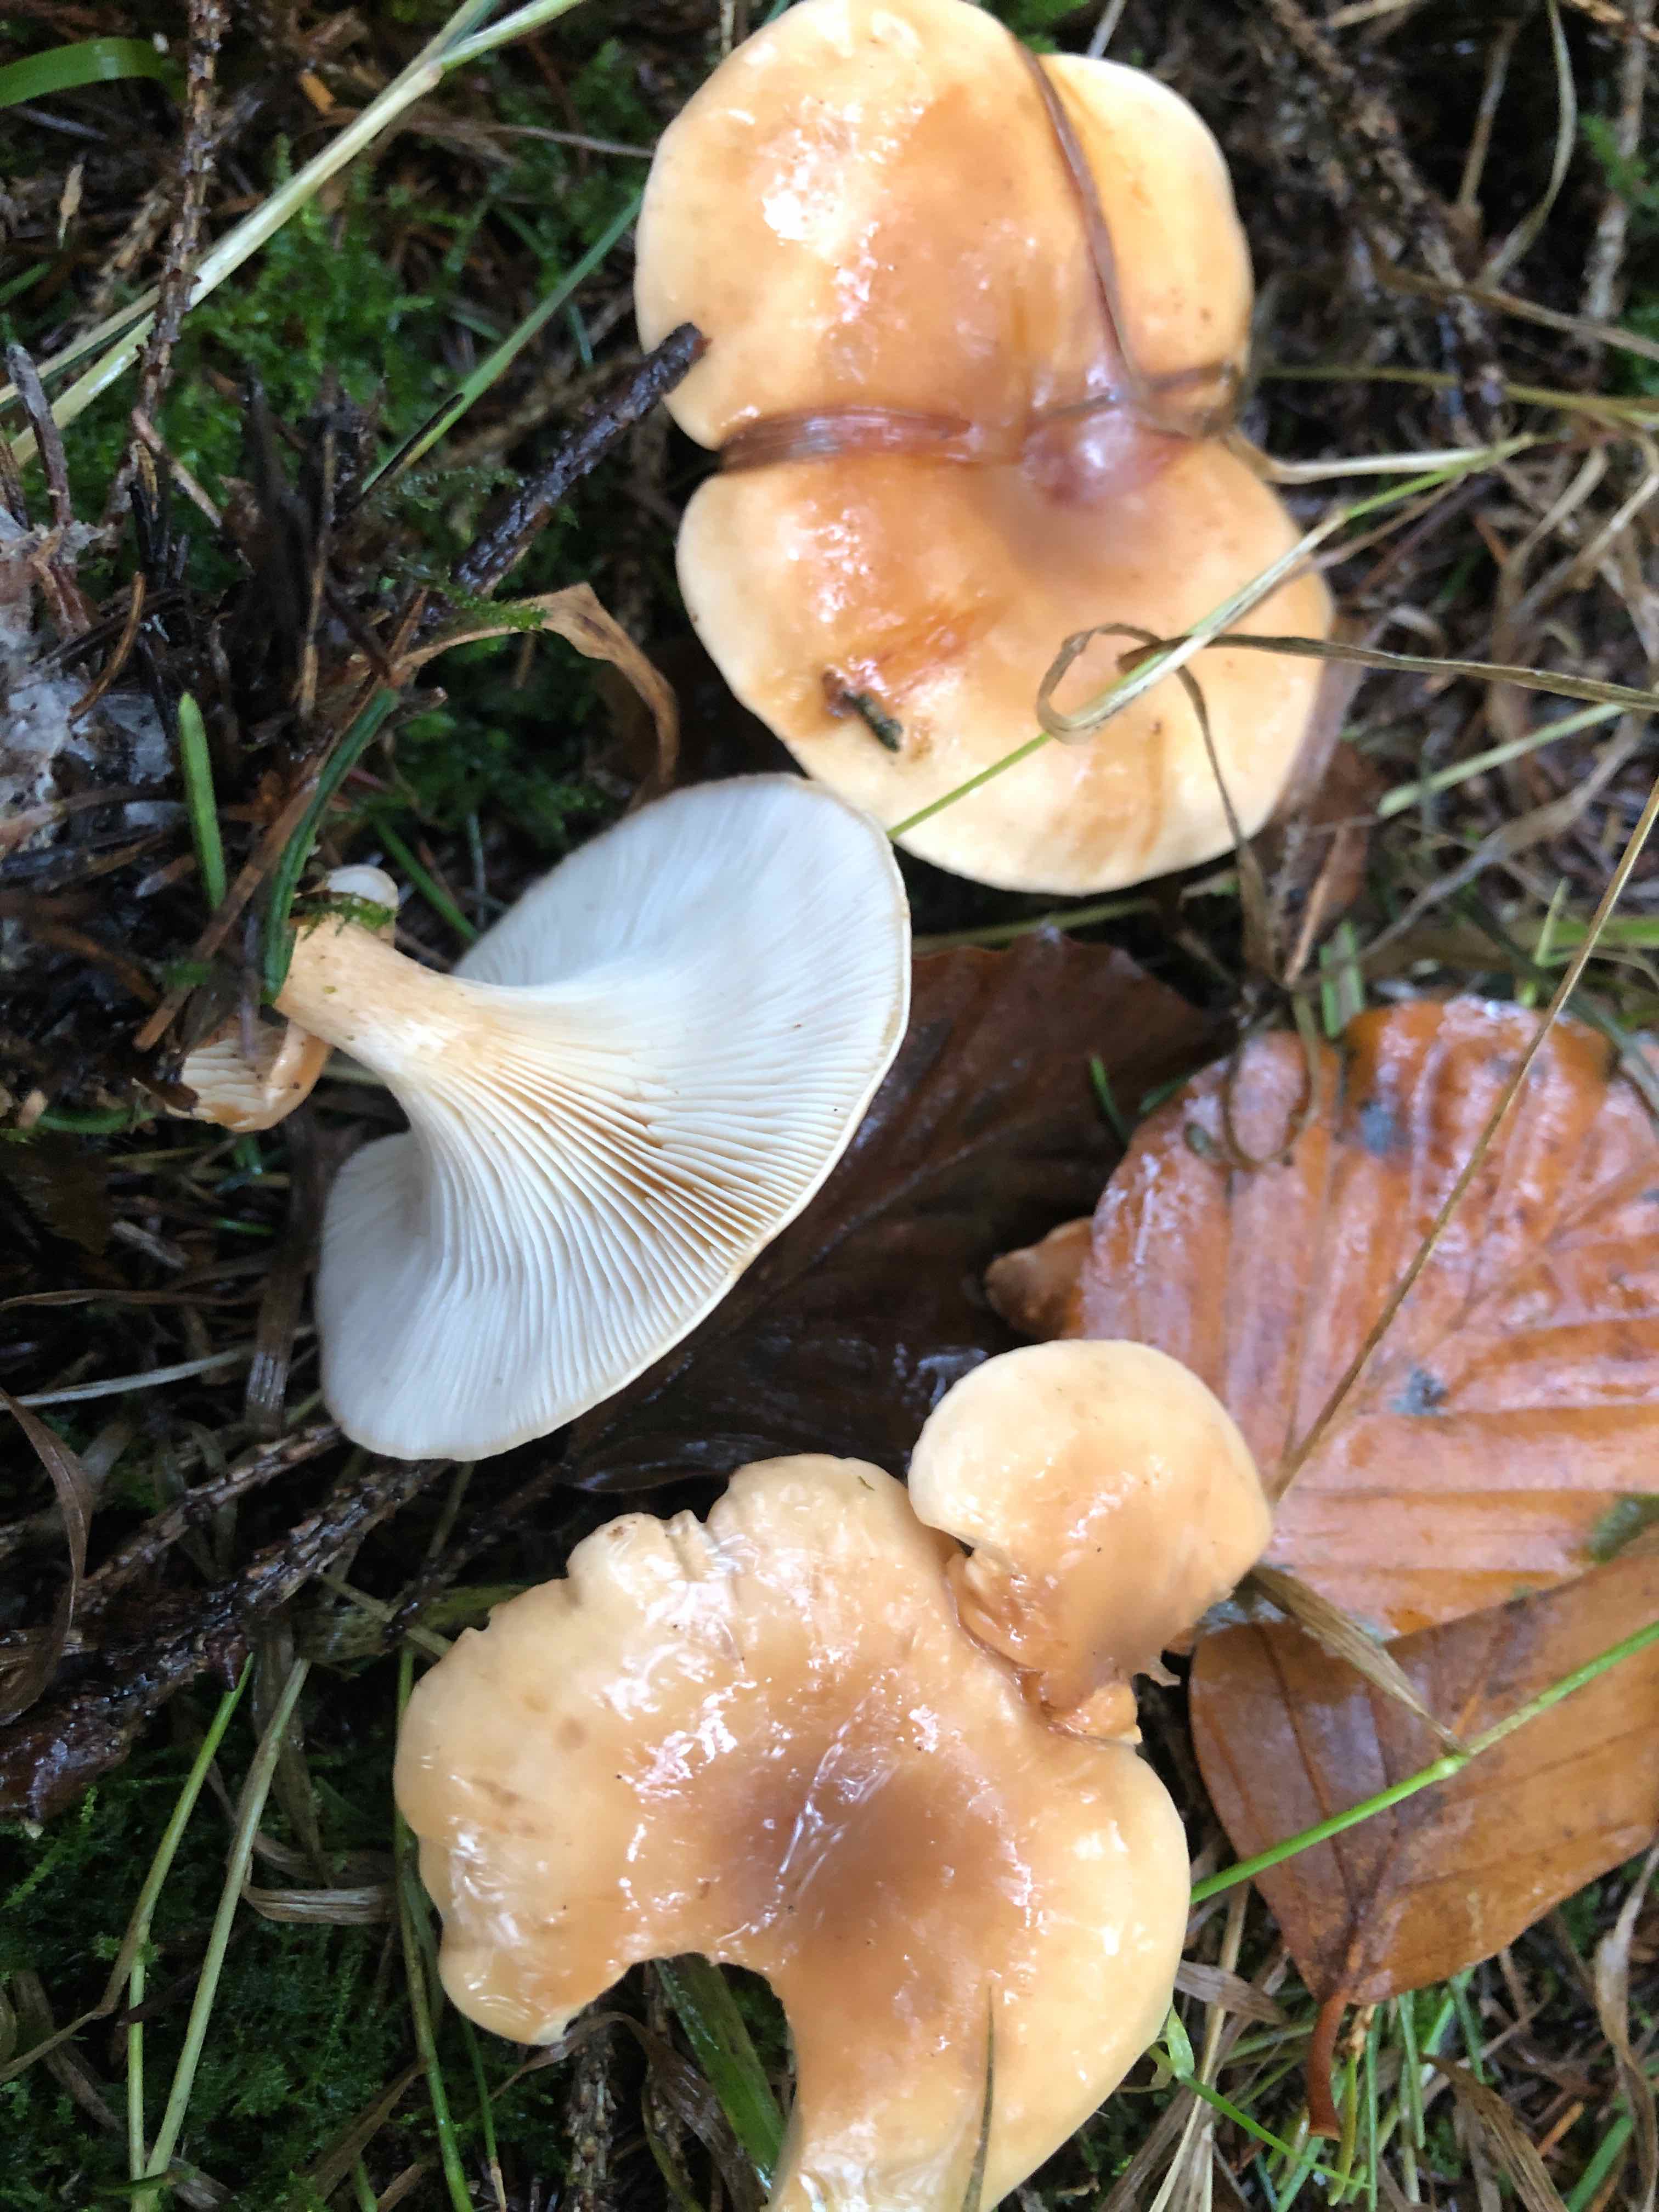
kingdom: Fungi
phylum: Basidiomycota
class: Agaricomycetes
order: Agaricales
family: Tricholomataceae
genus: Paralepista
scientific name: Paralepista flaccida
